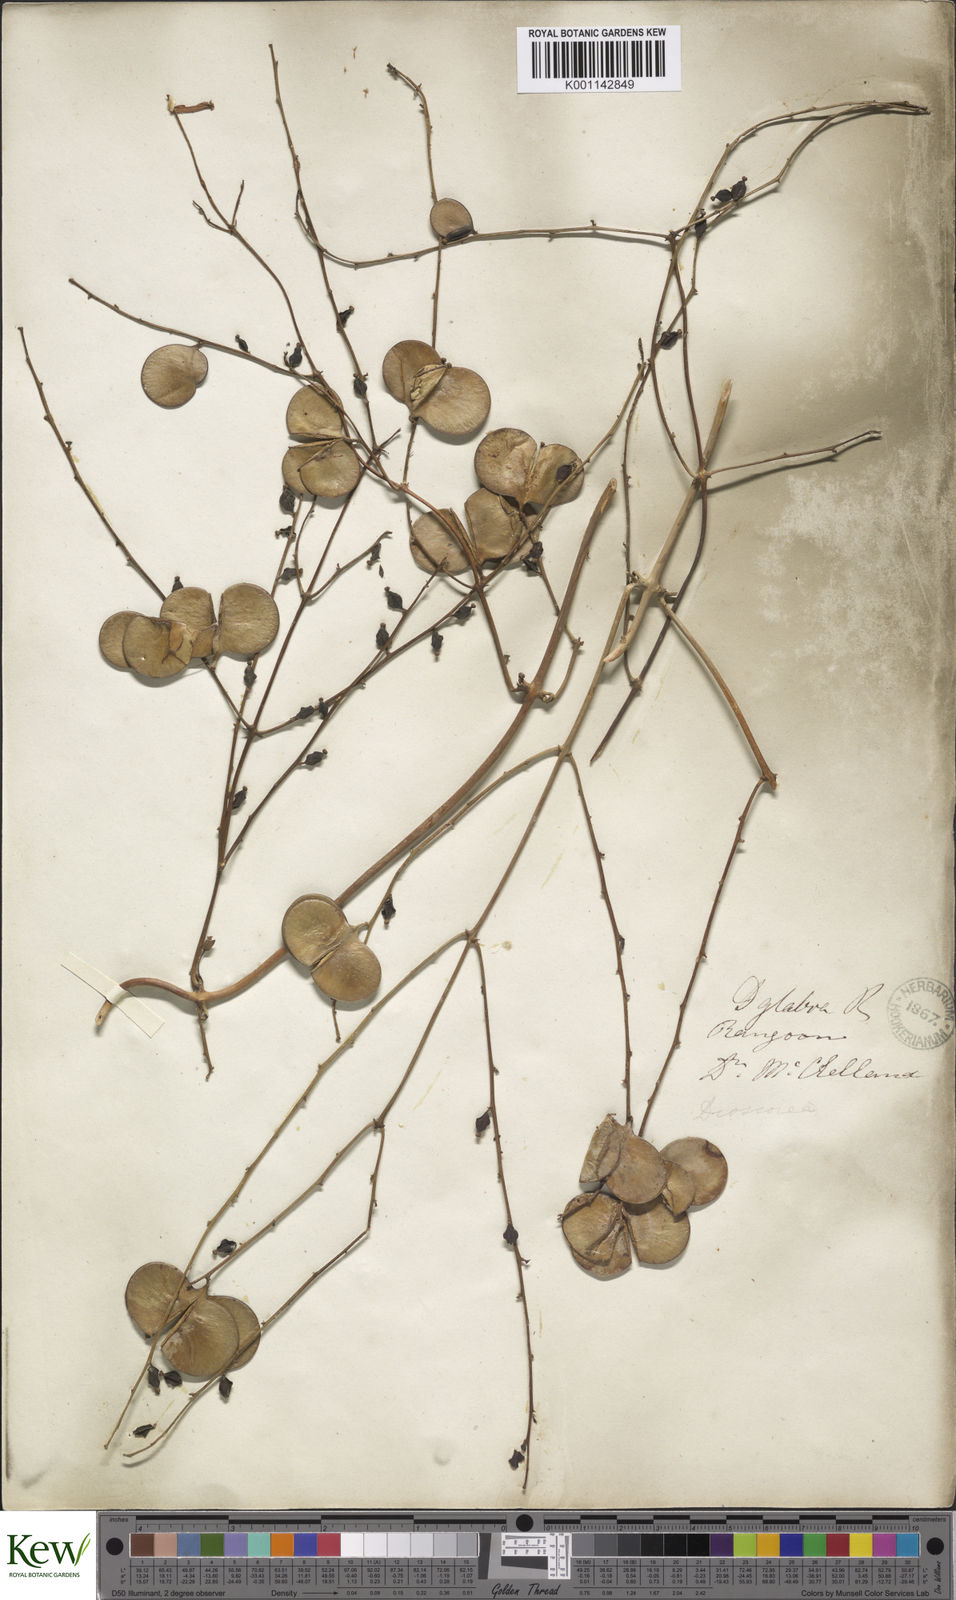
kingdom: Plantae
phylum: Tracheophyta
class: Liliopsida
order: Dioscoreales
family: Dioscoreaceae
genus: Dioscorea
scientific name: Dioscorea glabra
